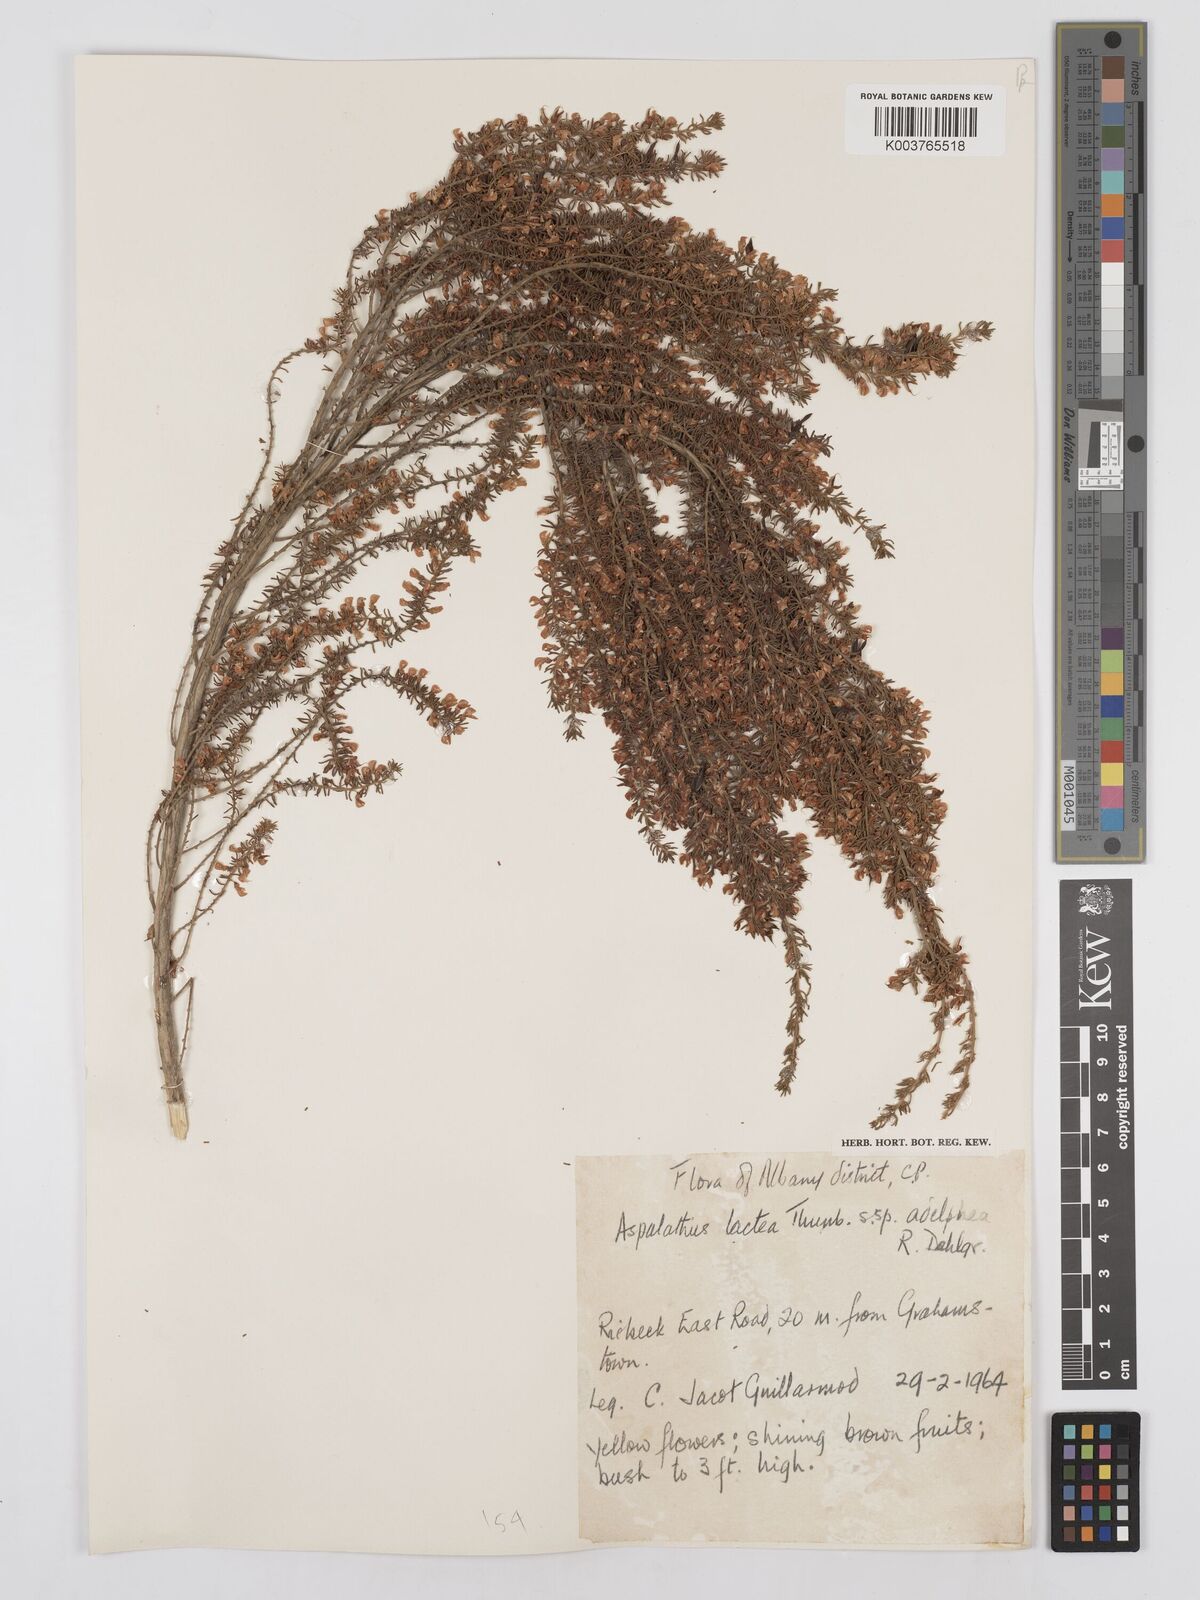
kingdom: Plantae
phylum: Tracheophyta
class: Magnoliopsida
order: Fabales
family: Fabaceae
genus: Aspalathus
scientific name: Aspalathus lactea
